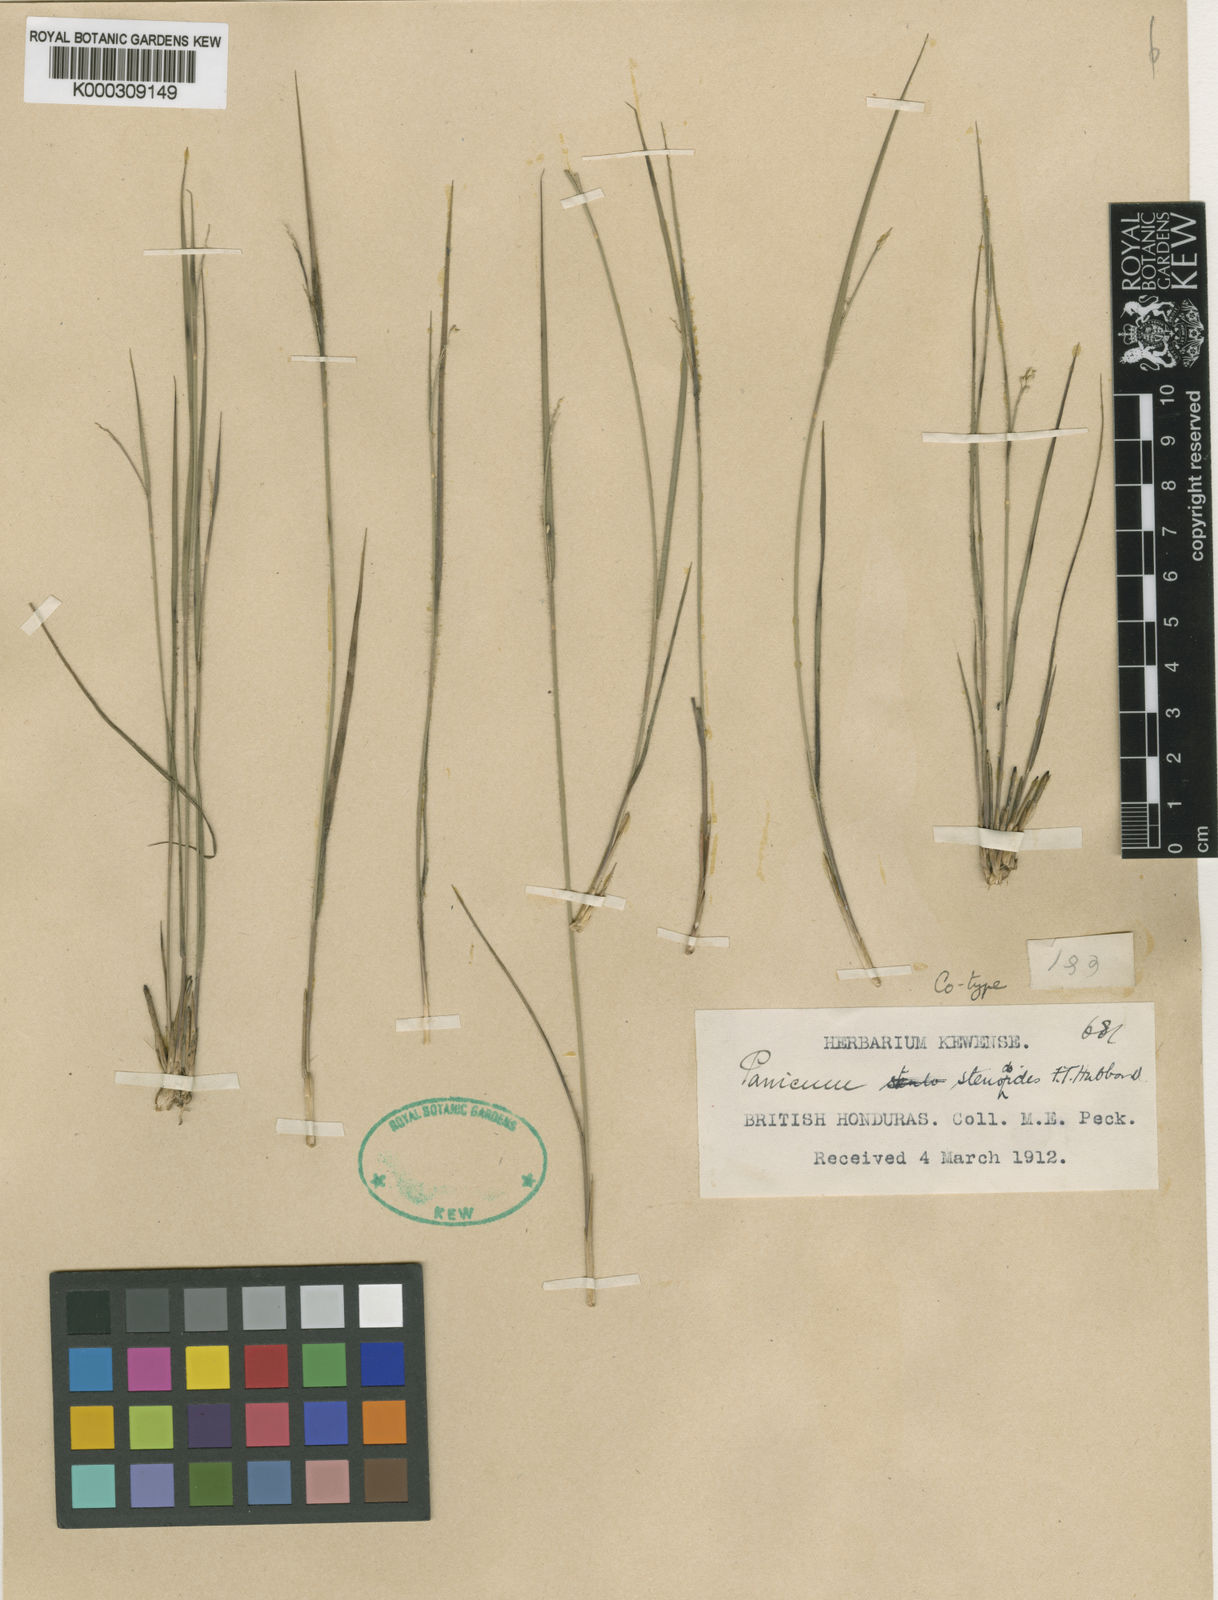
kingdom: Plantae
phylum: Tracheophyta
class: Liliopsida
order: Poales
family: Poaceae
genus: Coleataenia
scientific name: Coleataenia caricoides
